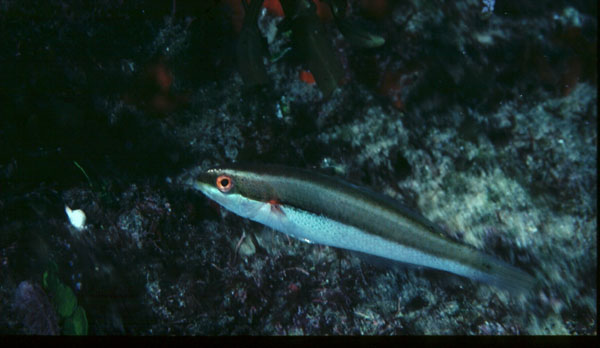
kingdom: Animalia
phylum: Chordata
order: Perciformes
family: Labridae
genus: Stethojulis
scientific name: Stethojulis interrupta
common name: Cutribbon wrasse
